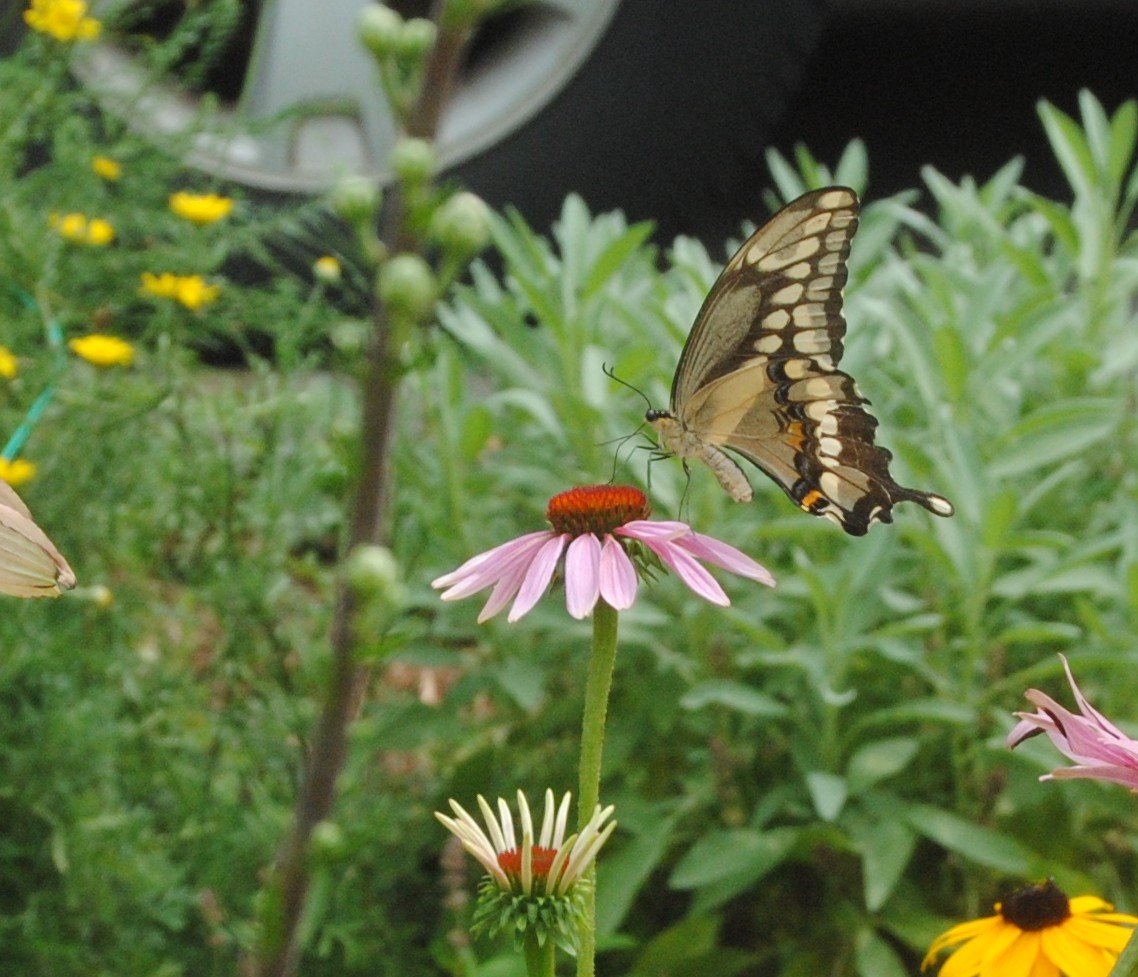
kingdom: Animalia
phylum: Arthropoda
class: Insecta
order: Lepidoptera
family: Papilionidae
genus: Papilio
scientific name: Papilio cresphontes
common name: Eastern Giant Swallowtail
